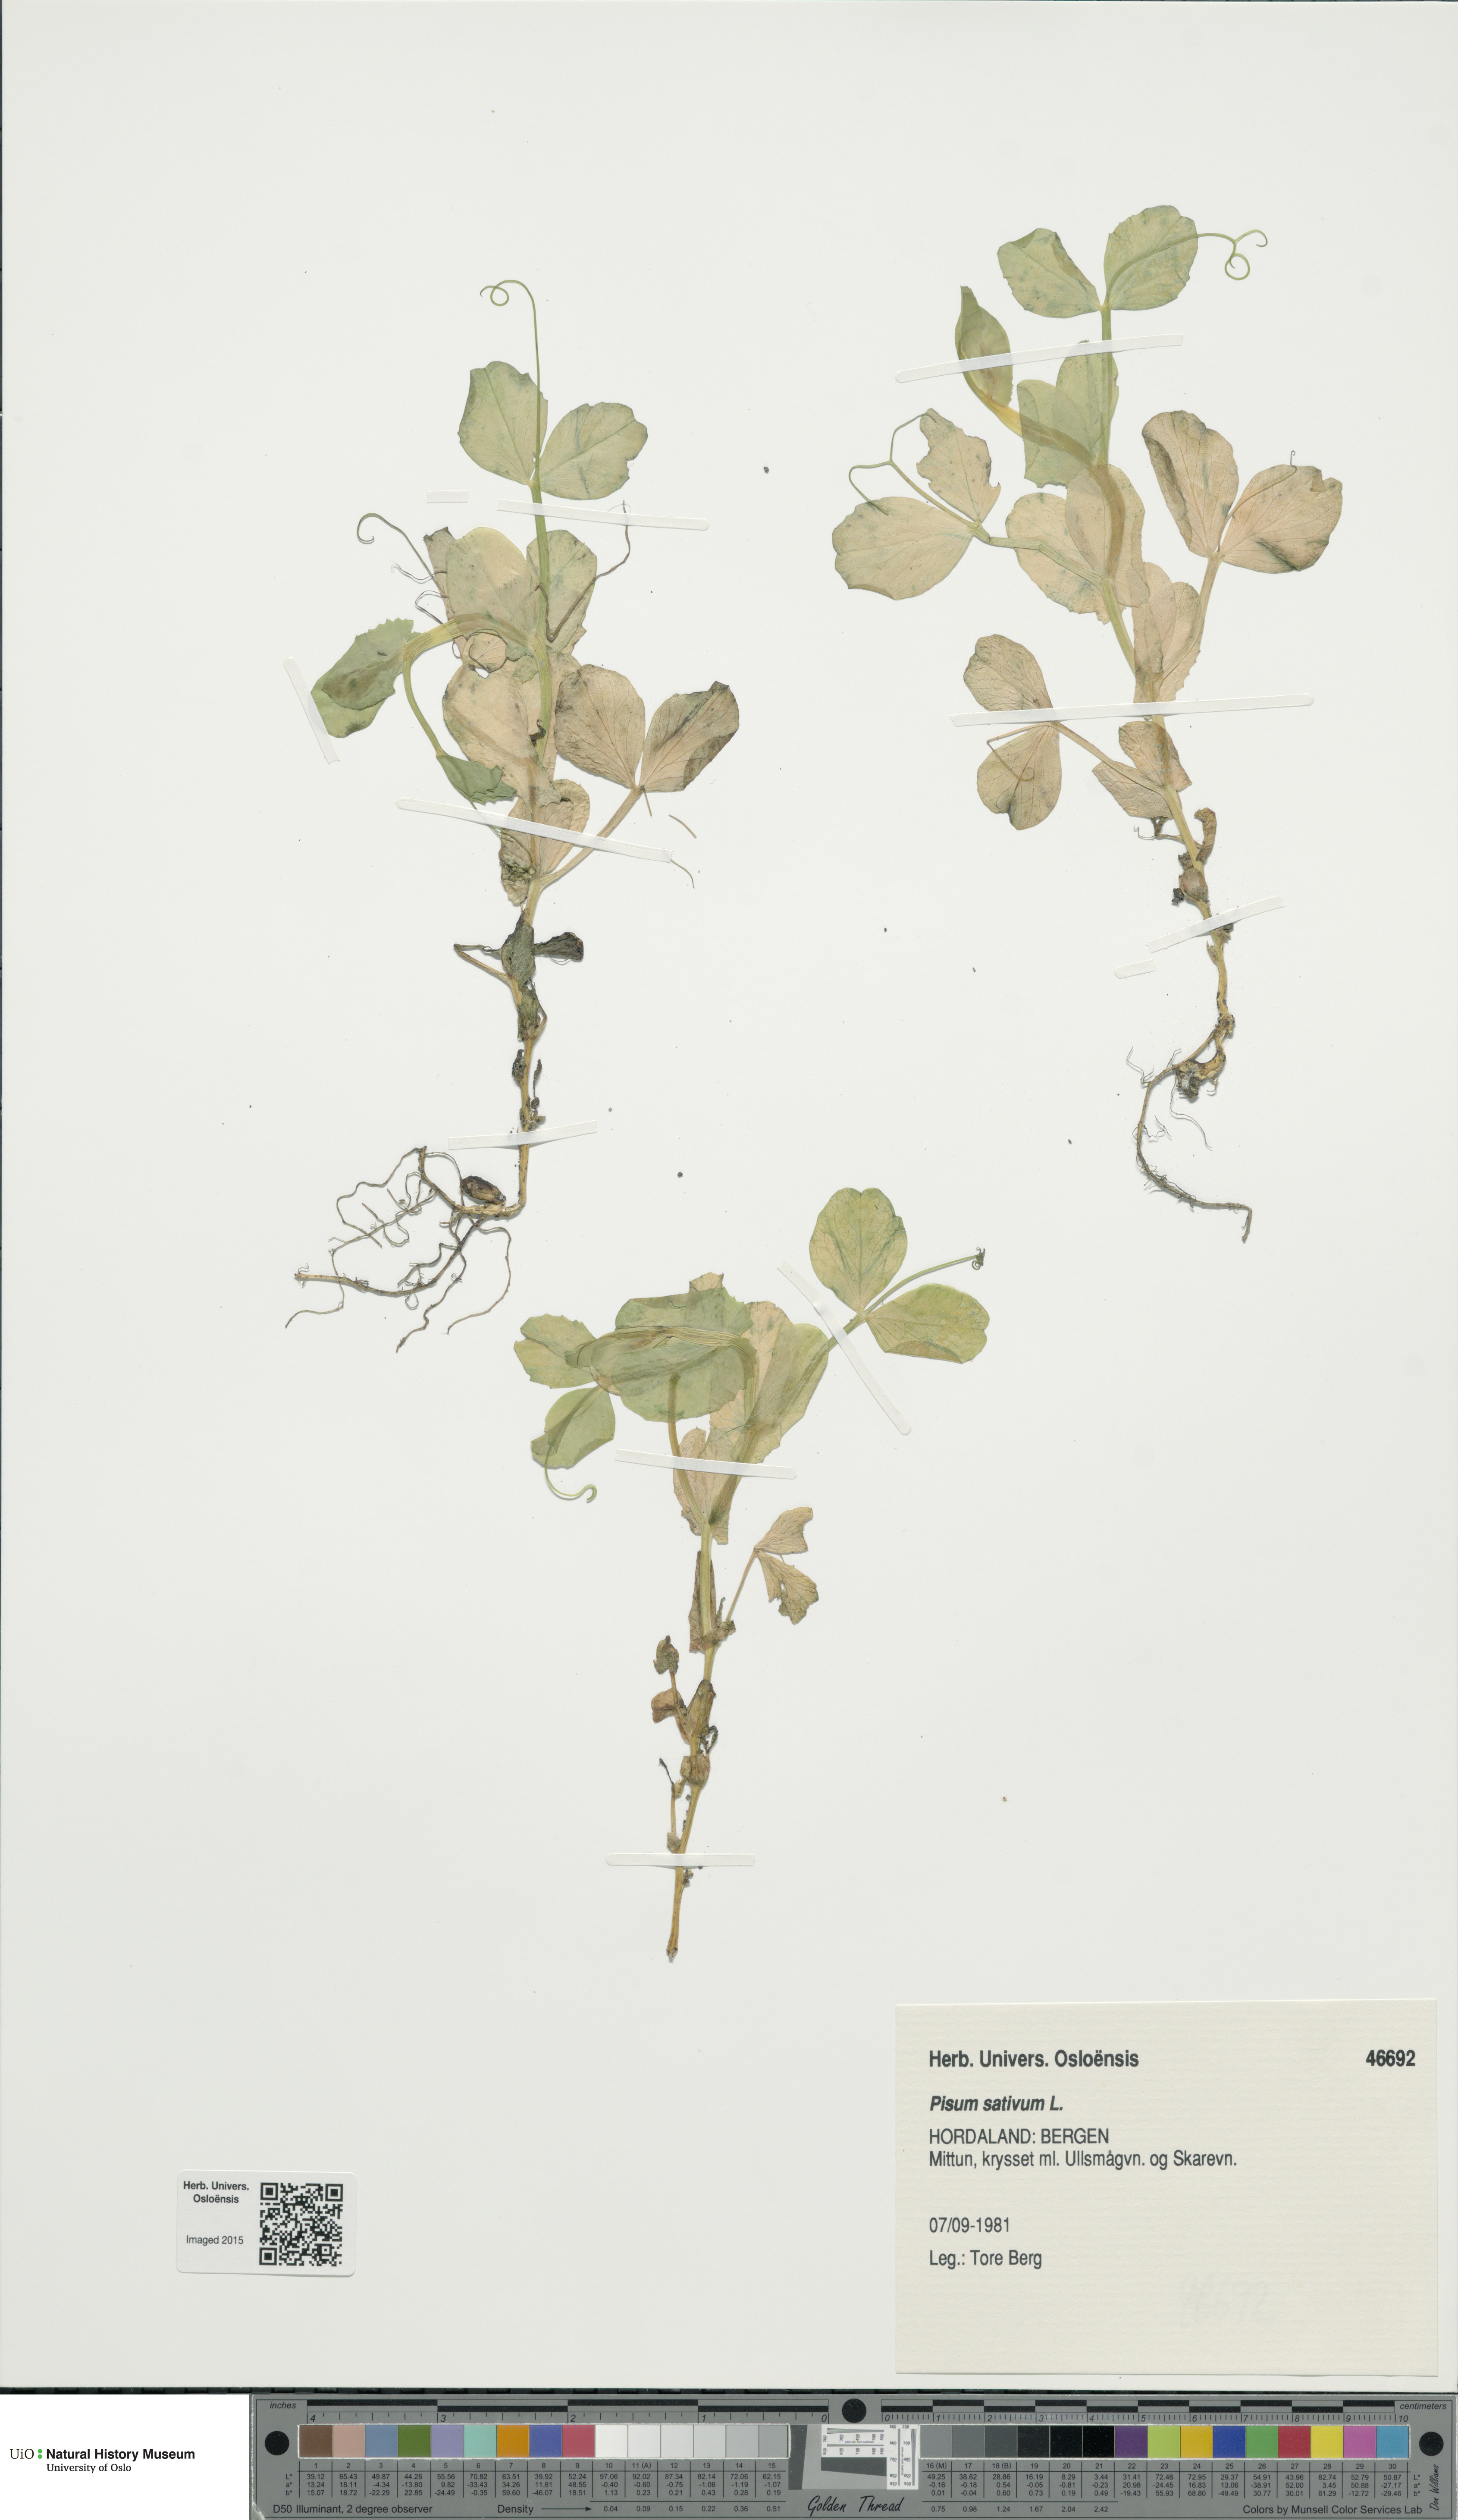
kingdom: Plantae
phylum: Tracheophyta
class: Magnoliopsida
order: Fabales
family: Fabaceae
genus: Lathyrus
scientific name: Lathyrus oleraceus
